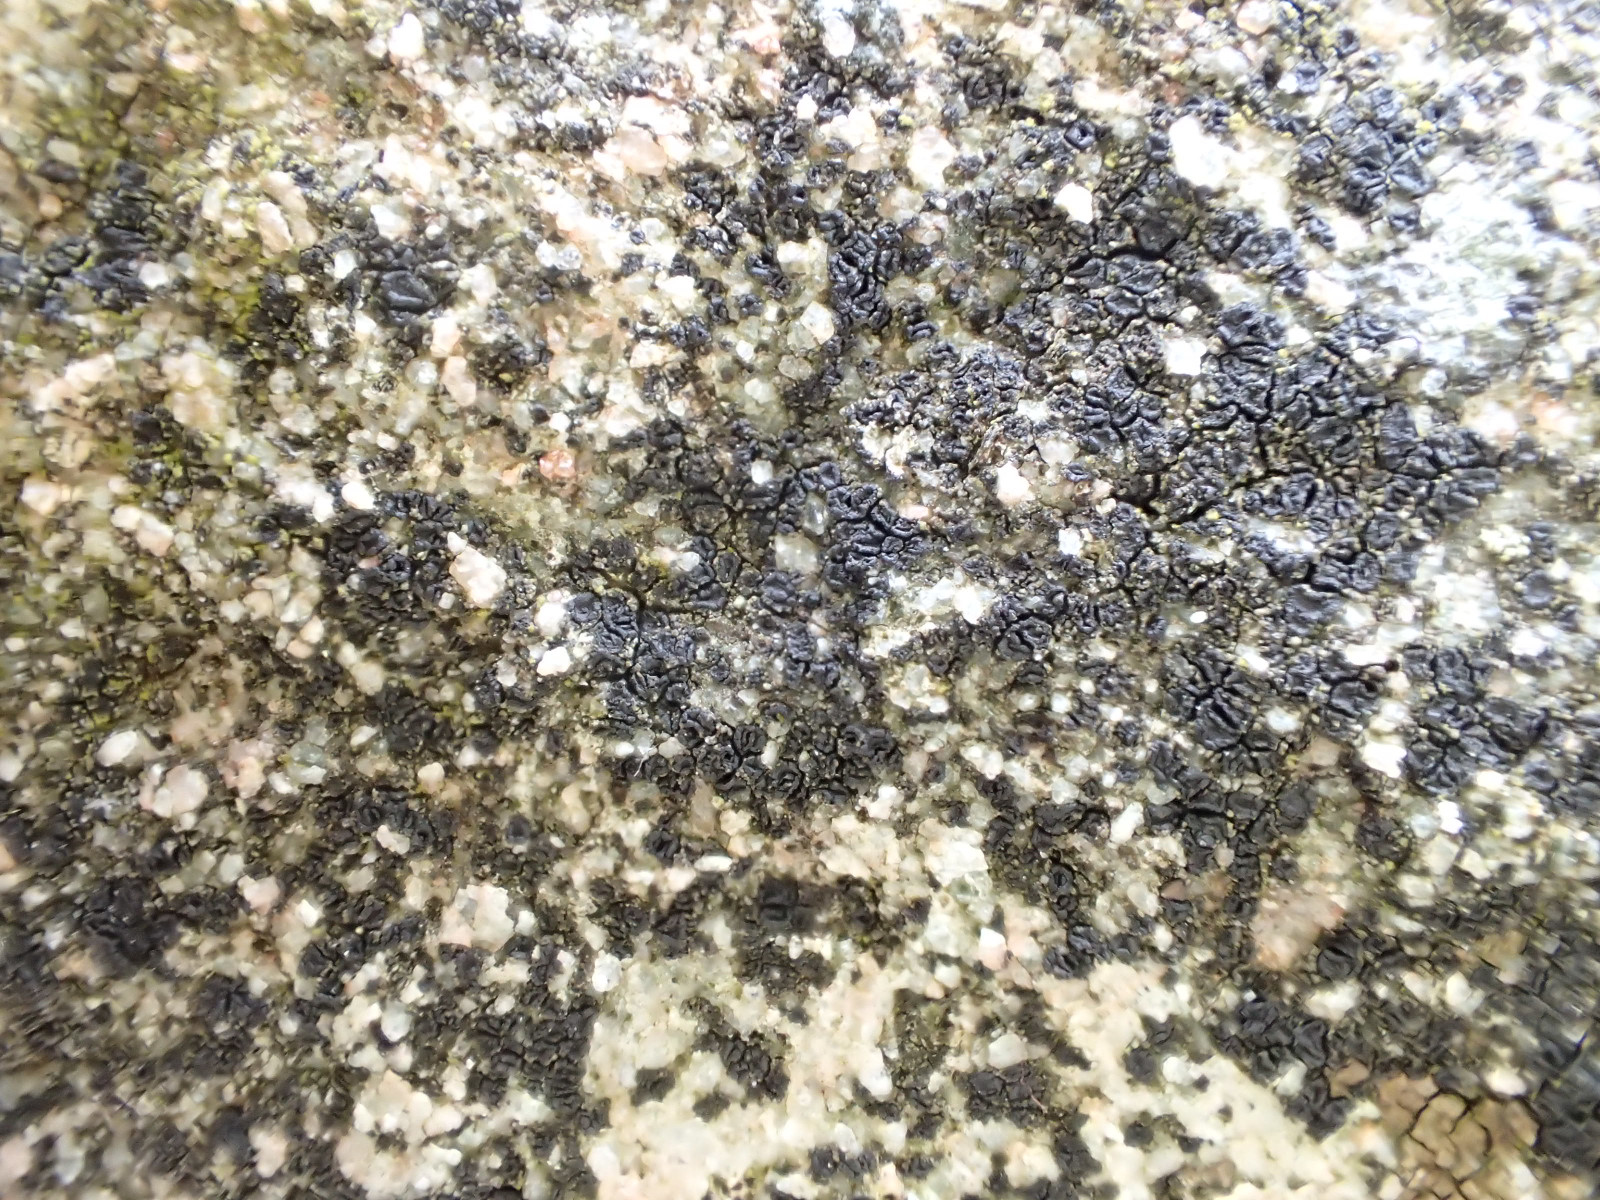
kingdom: Fungi
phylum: Ascomycota
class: Lecanoromycetes
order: Acarosporales
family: Acarosporaceae
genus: Acarospora
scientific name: Acarospora privigna
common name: sort foldekantlav
